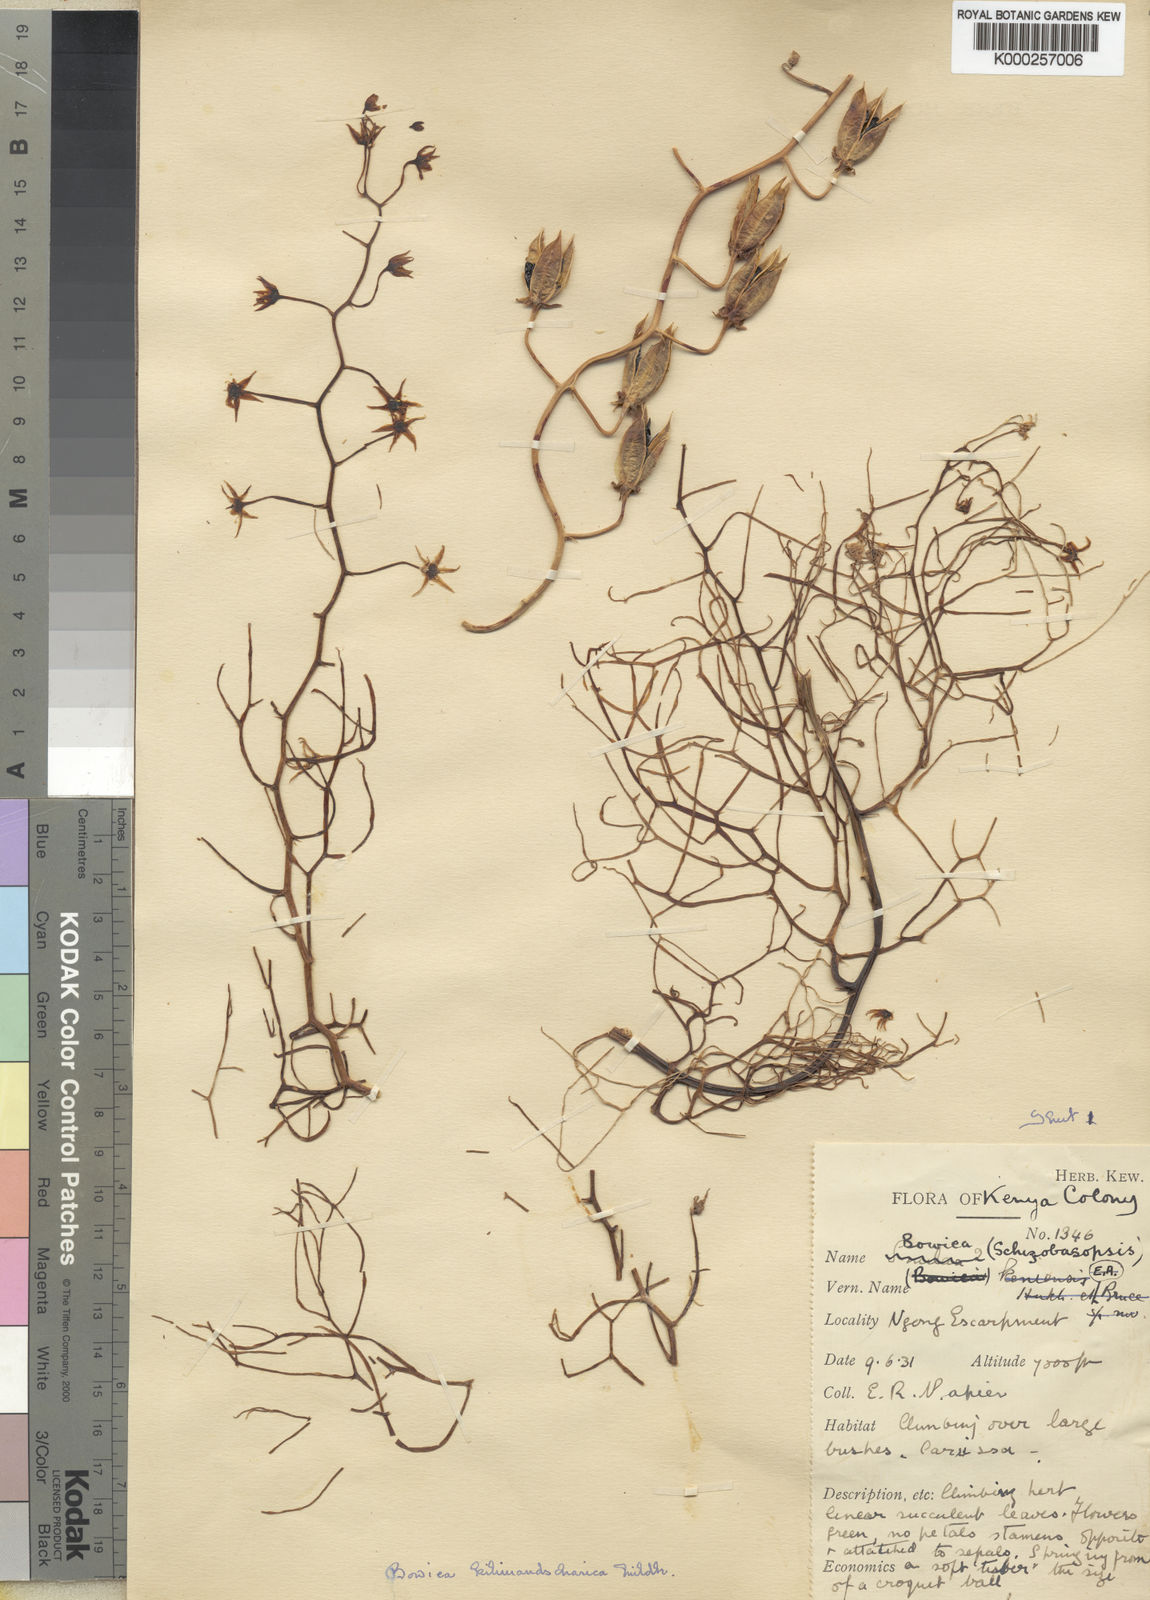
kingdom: Plantae
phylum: Tracheophyta
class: Liliopsida
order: Asparagales
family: Asparagaceae
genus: Bowiea
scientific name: Bowiea volubilis
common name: Climbing-onion
